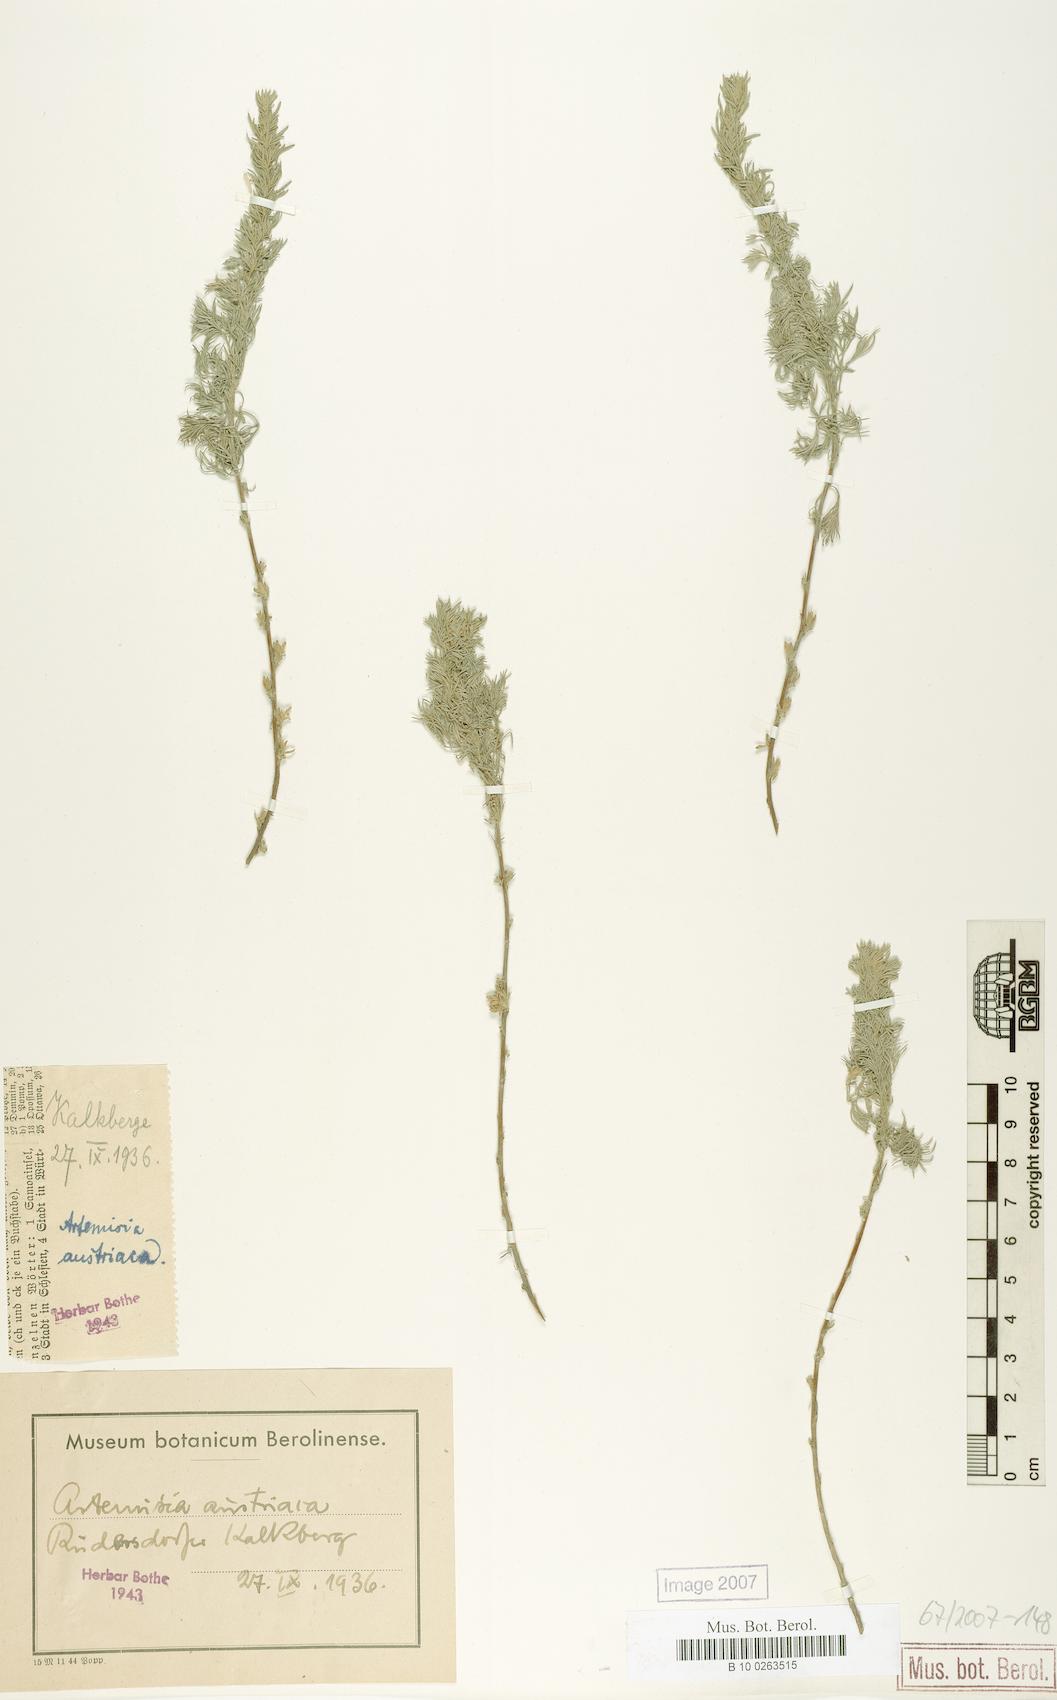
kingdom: Plantae
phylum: Tracheophyta
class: Magnoliopsida
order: Asterales
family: Asteraceae
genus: Artemisia
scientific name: Artemisia austriaca
